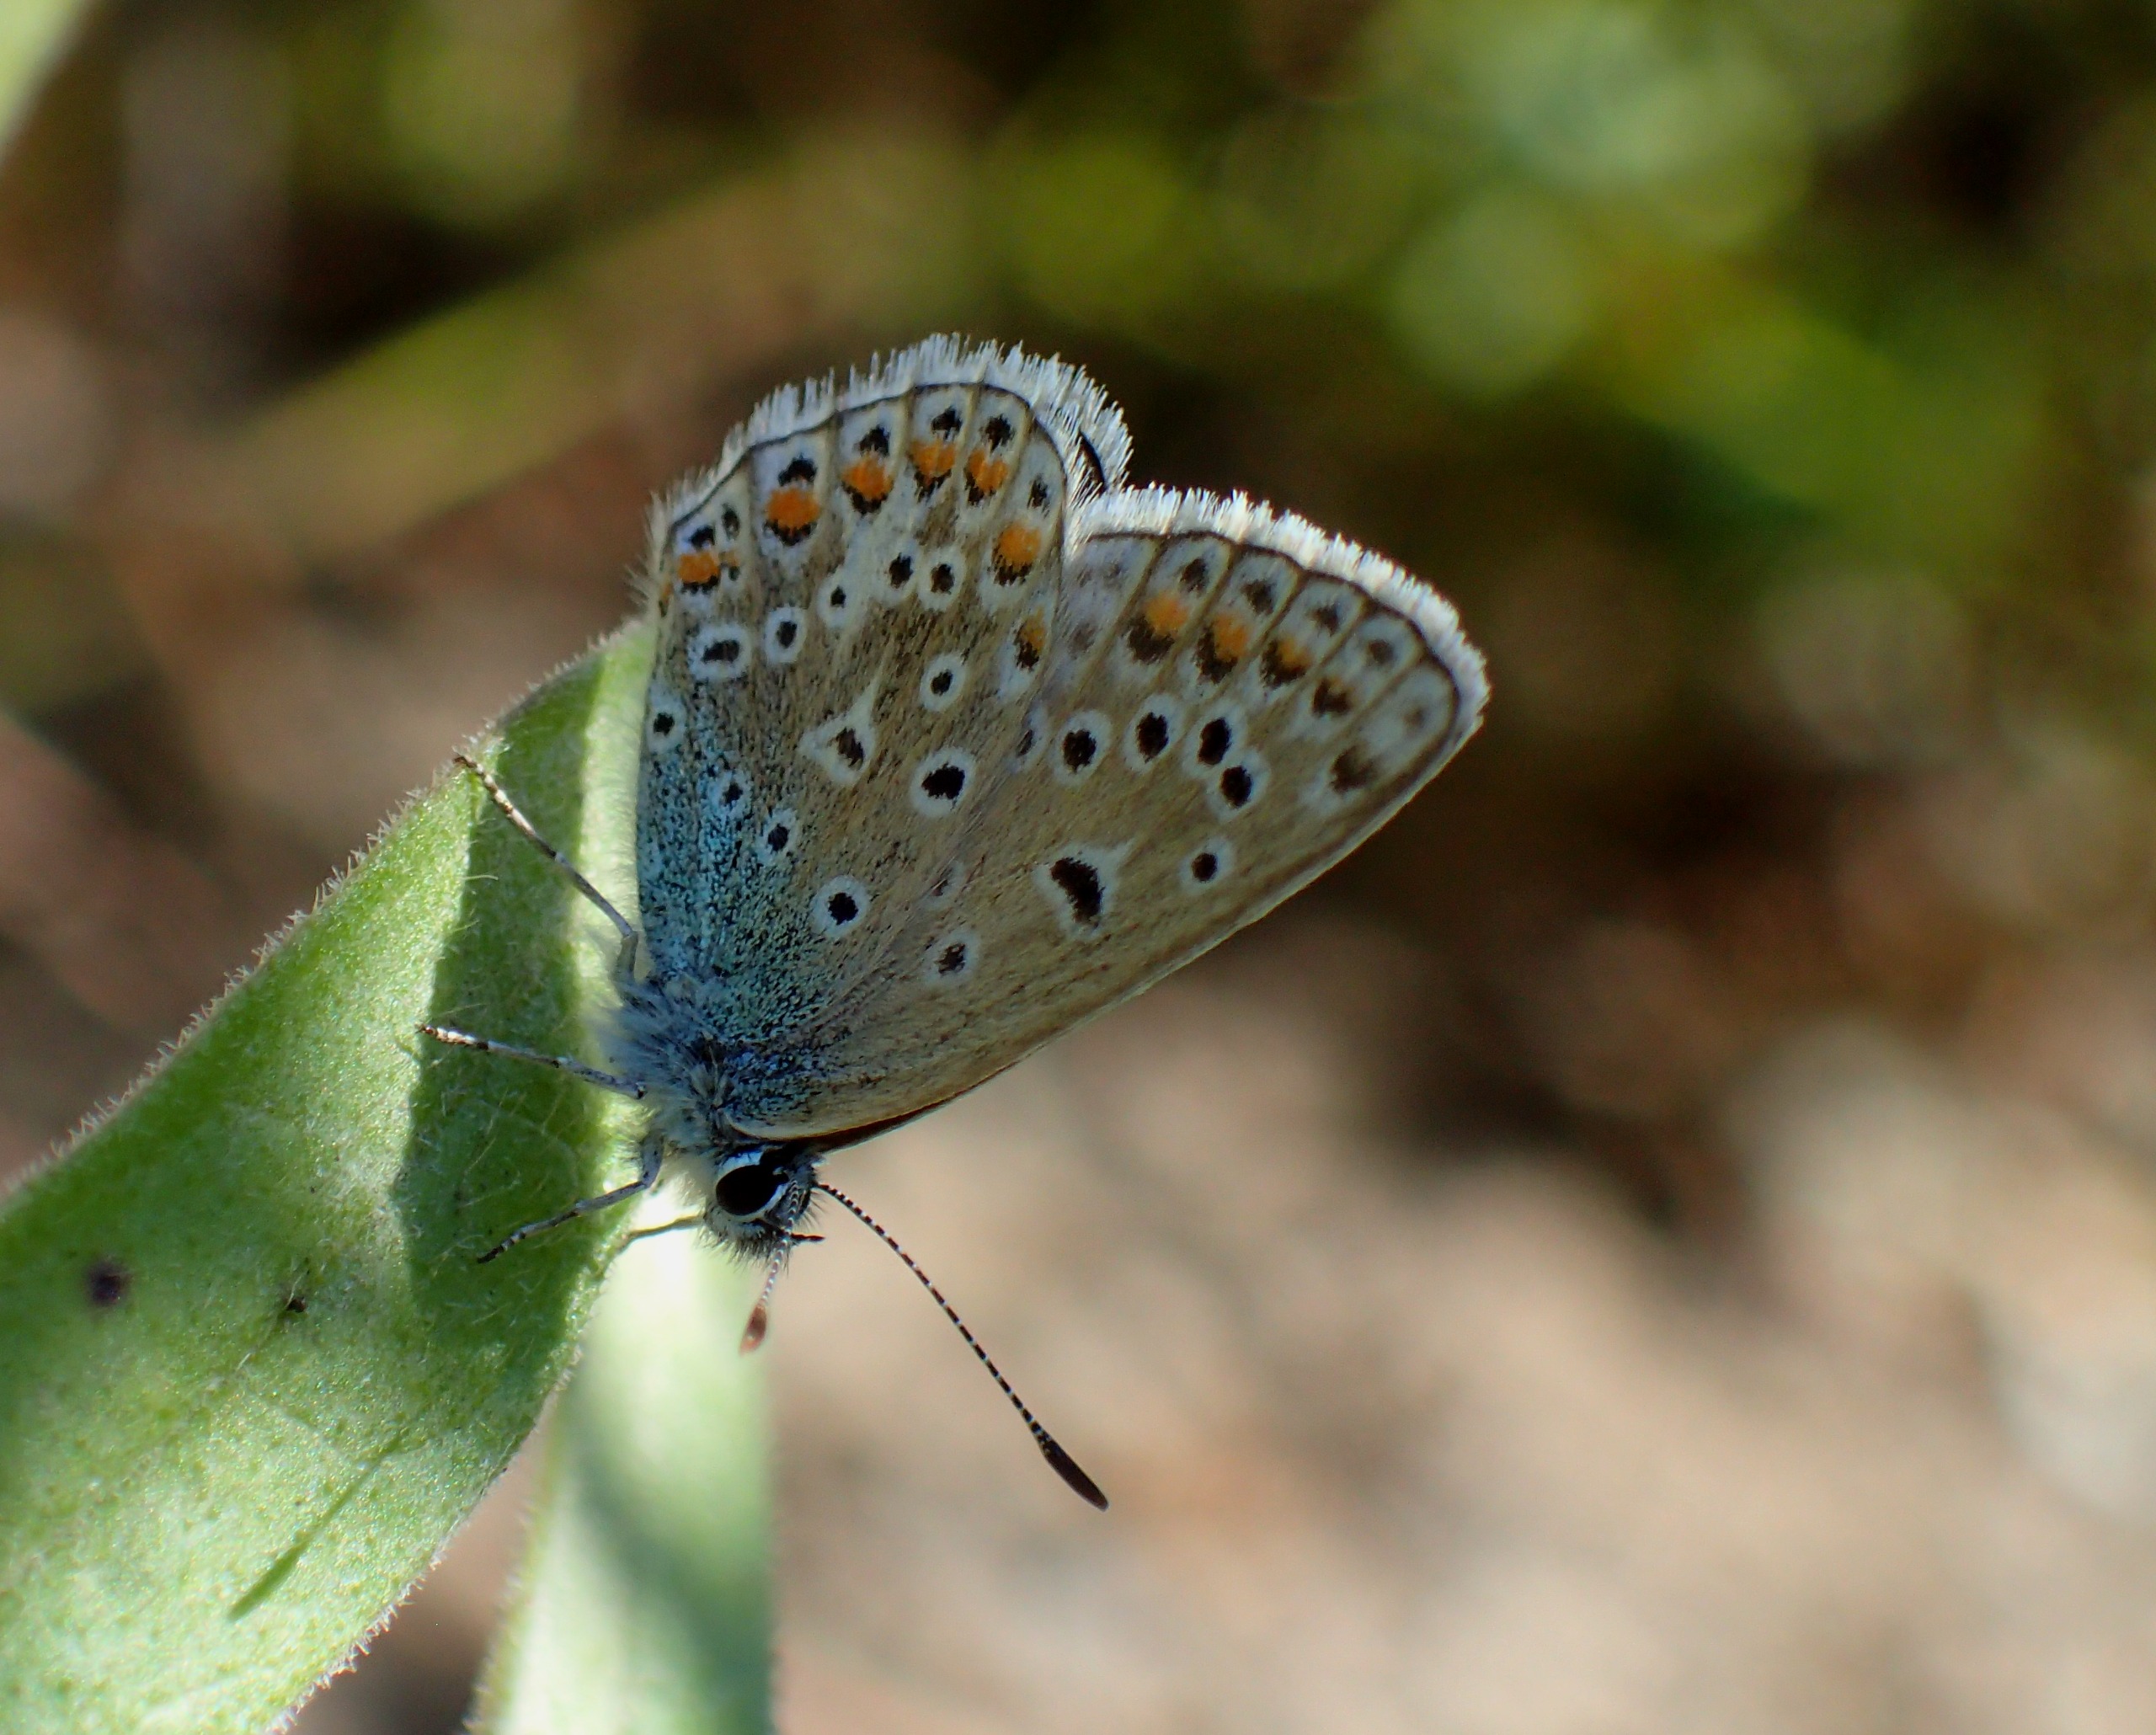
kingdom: Animalia
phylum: Arthropoda
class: Insecta
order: Lepidoptera
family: Lycaenidae
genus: Polyommatus
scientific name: Polyommatus icarus
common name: Almindelig blåfugl
